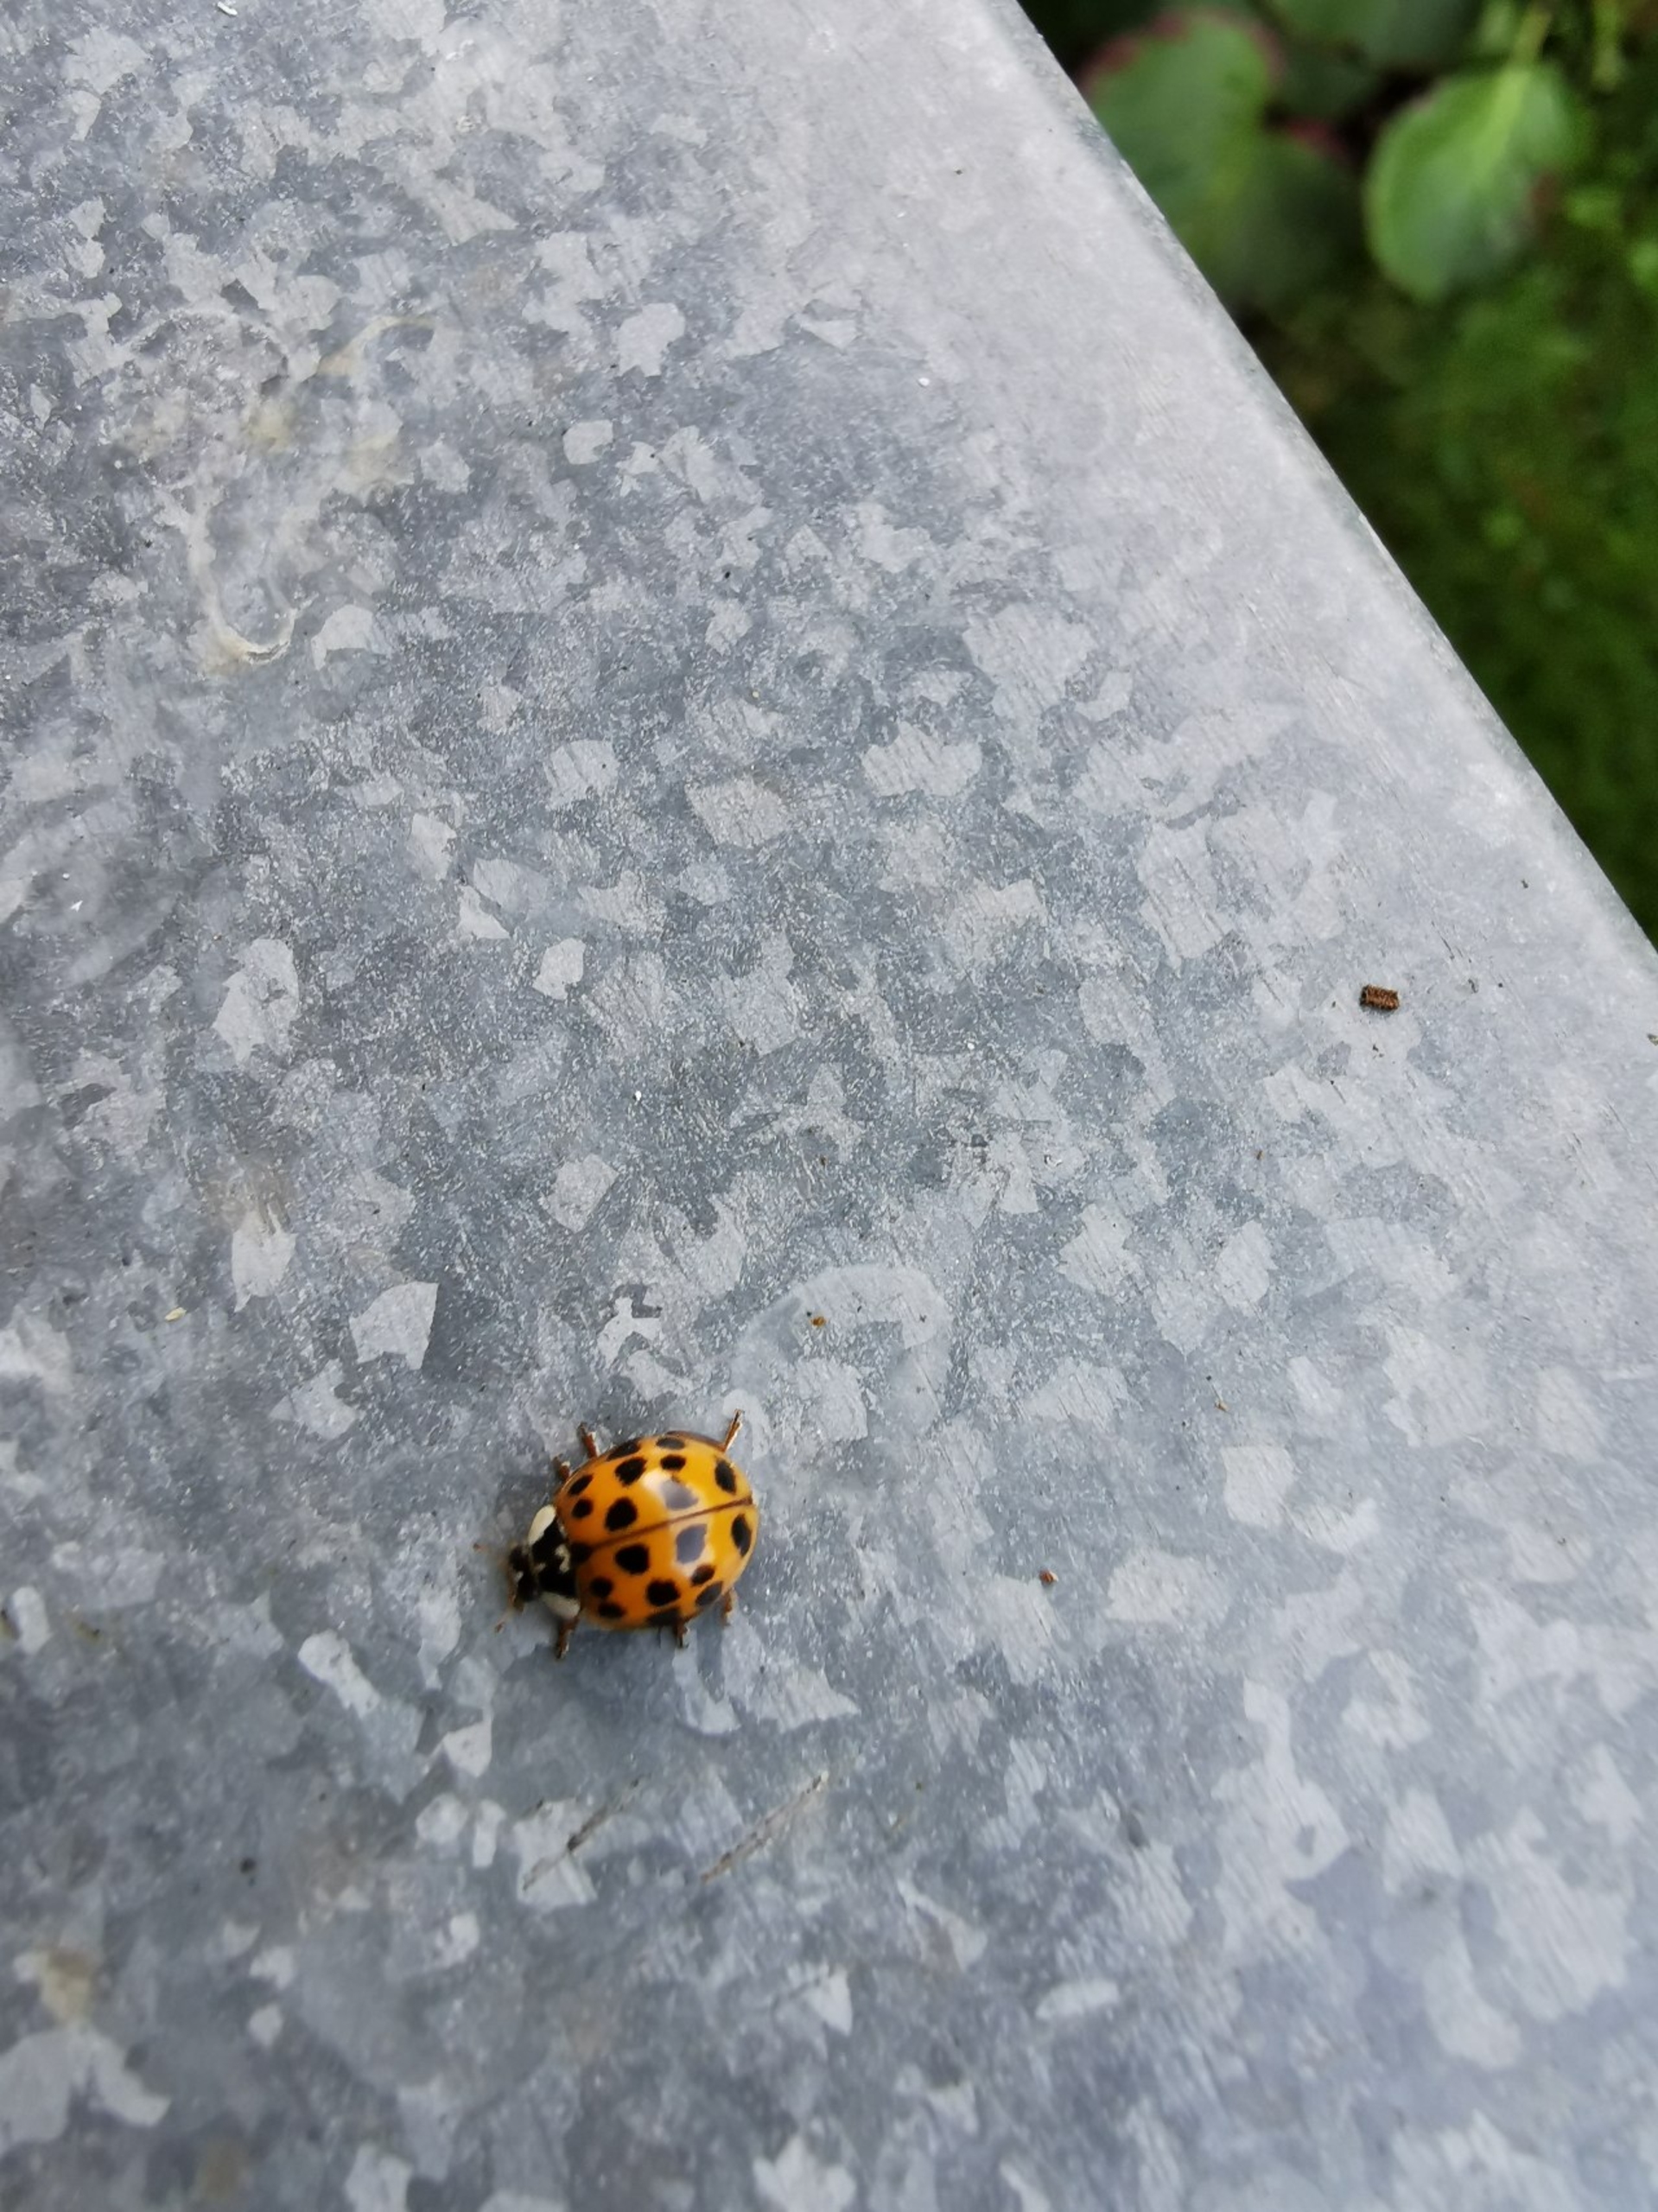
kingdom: Animalia
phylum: Arthropoda
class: Insecta
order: Coleoptera
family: Coccinellidae
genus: Harmonia
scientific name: Harmonia axyridis
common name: Harlekinmariehøne
